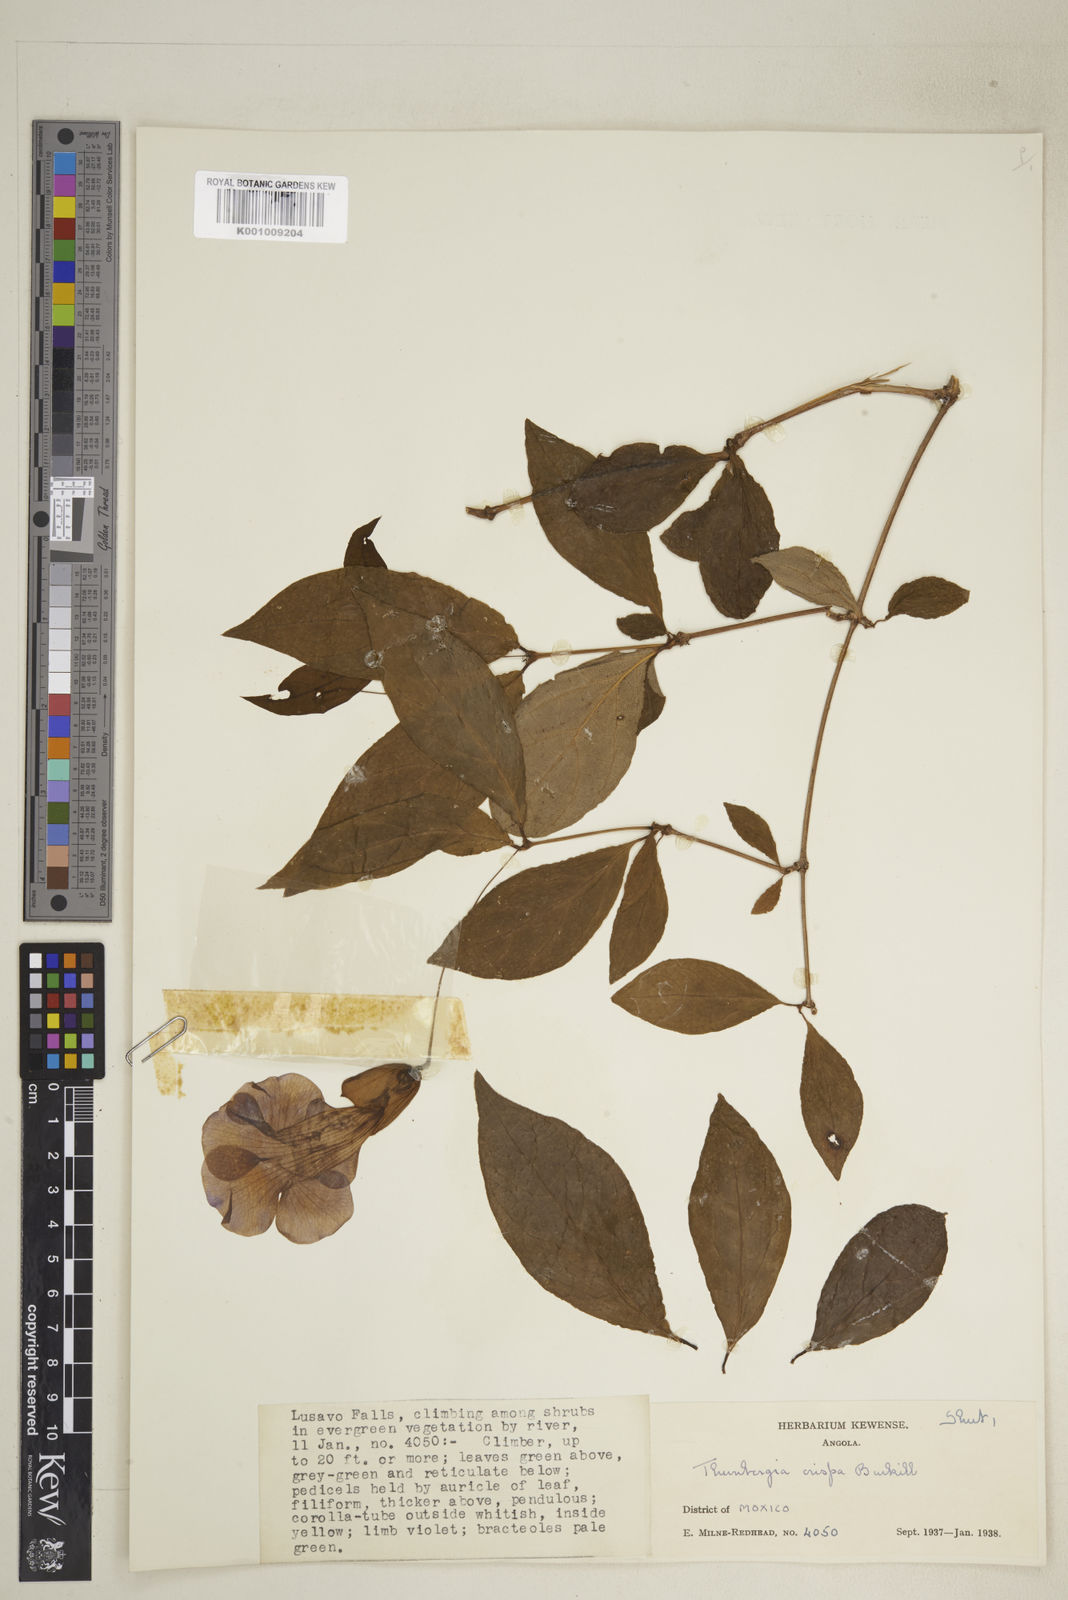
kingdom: Plantae
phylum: Tracheophyta
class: Magnoliopsida
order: Lamiales
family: Acanthaceae
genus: Thunbergia
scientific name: Thunbergia crispa
